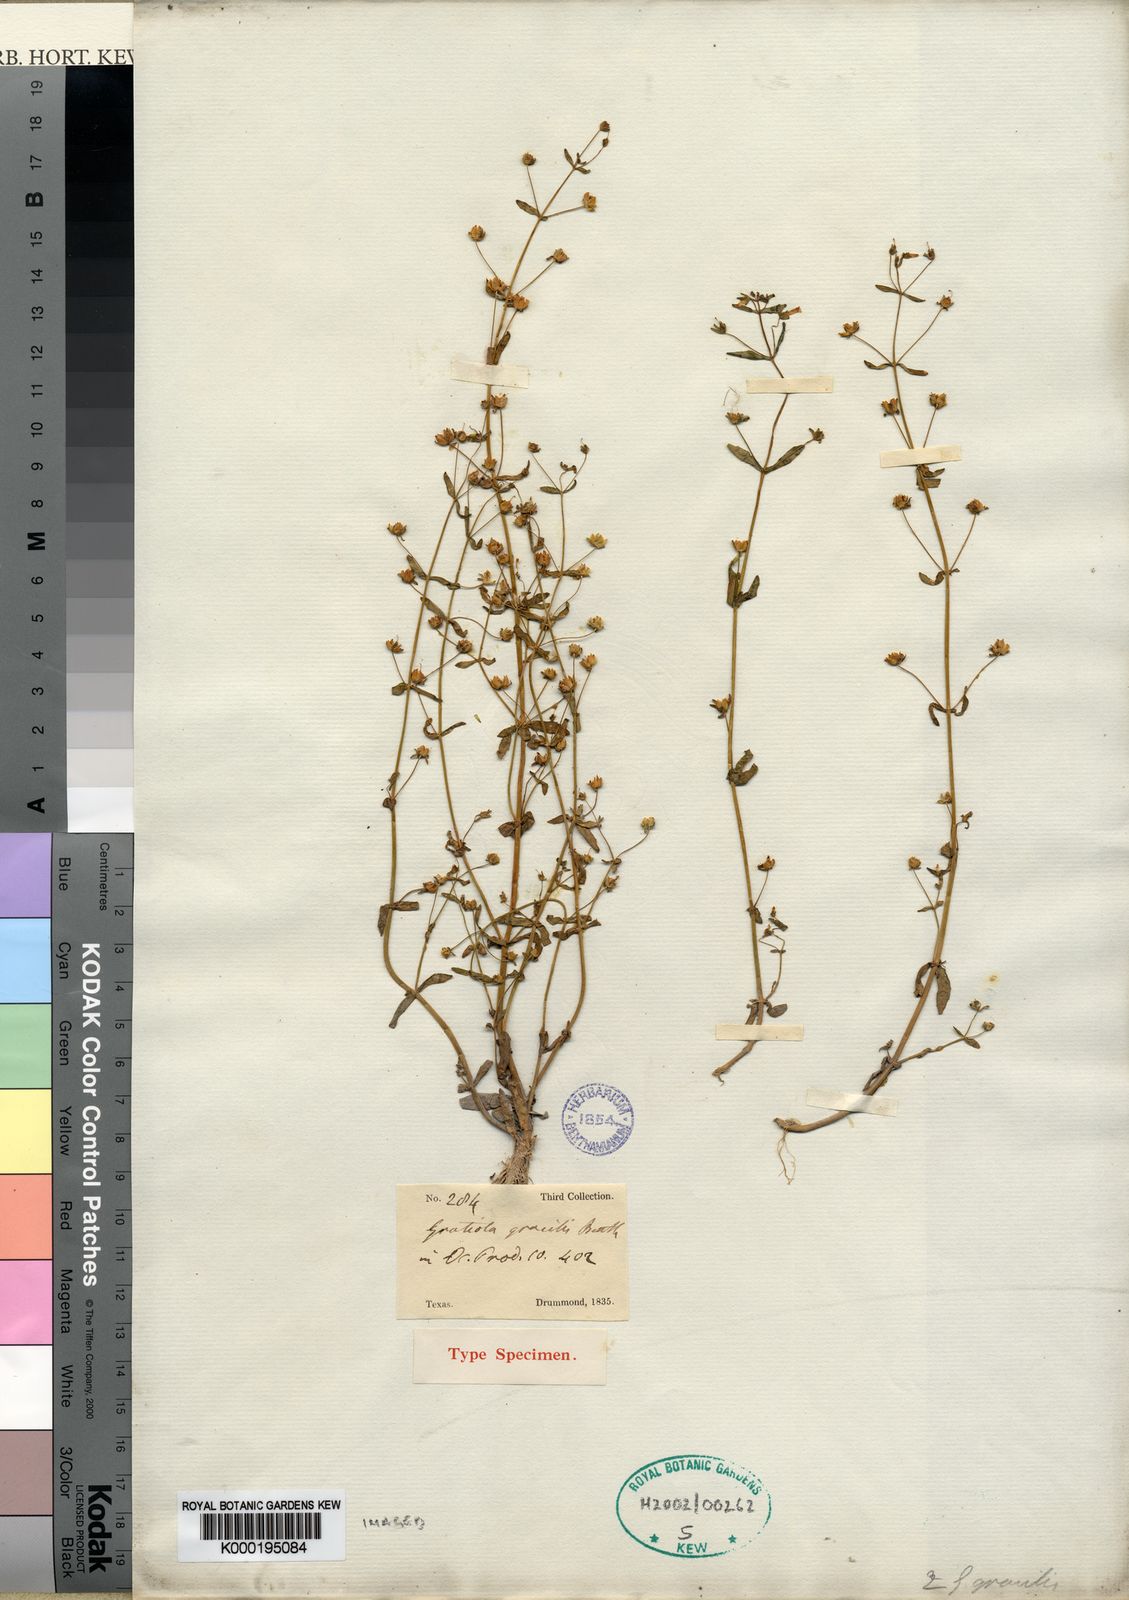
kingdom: Plantae
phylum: Tracheophyta
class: Magnoliopsida
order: Lamiales
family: Plantaginaceae
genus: Gratiola
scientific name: Gratiola neglecta
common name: American hedge-hyssop
